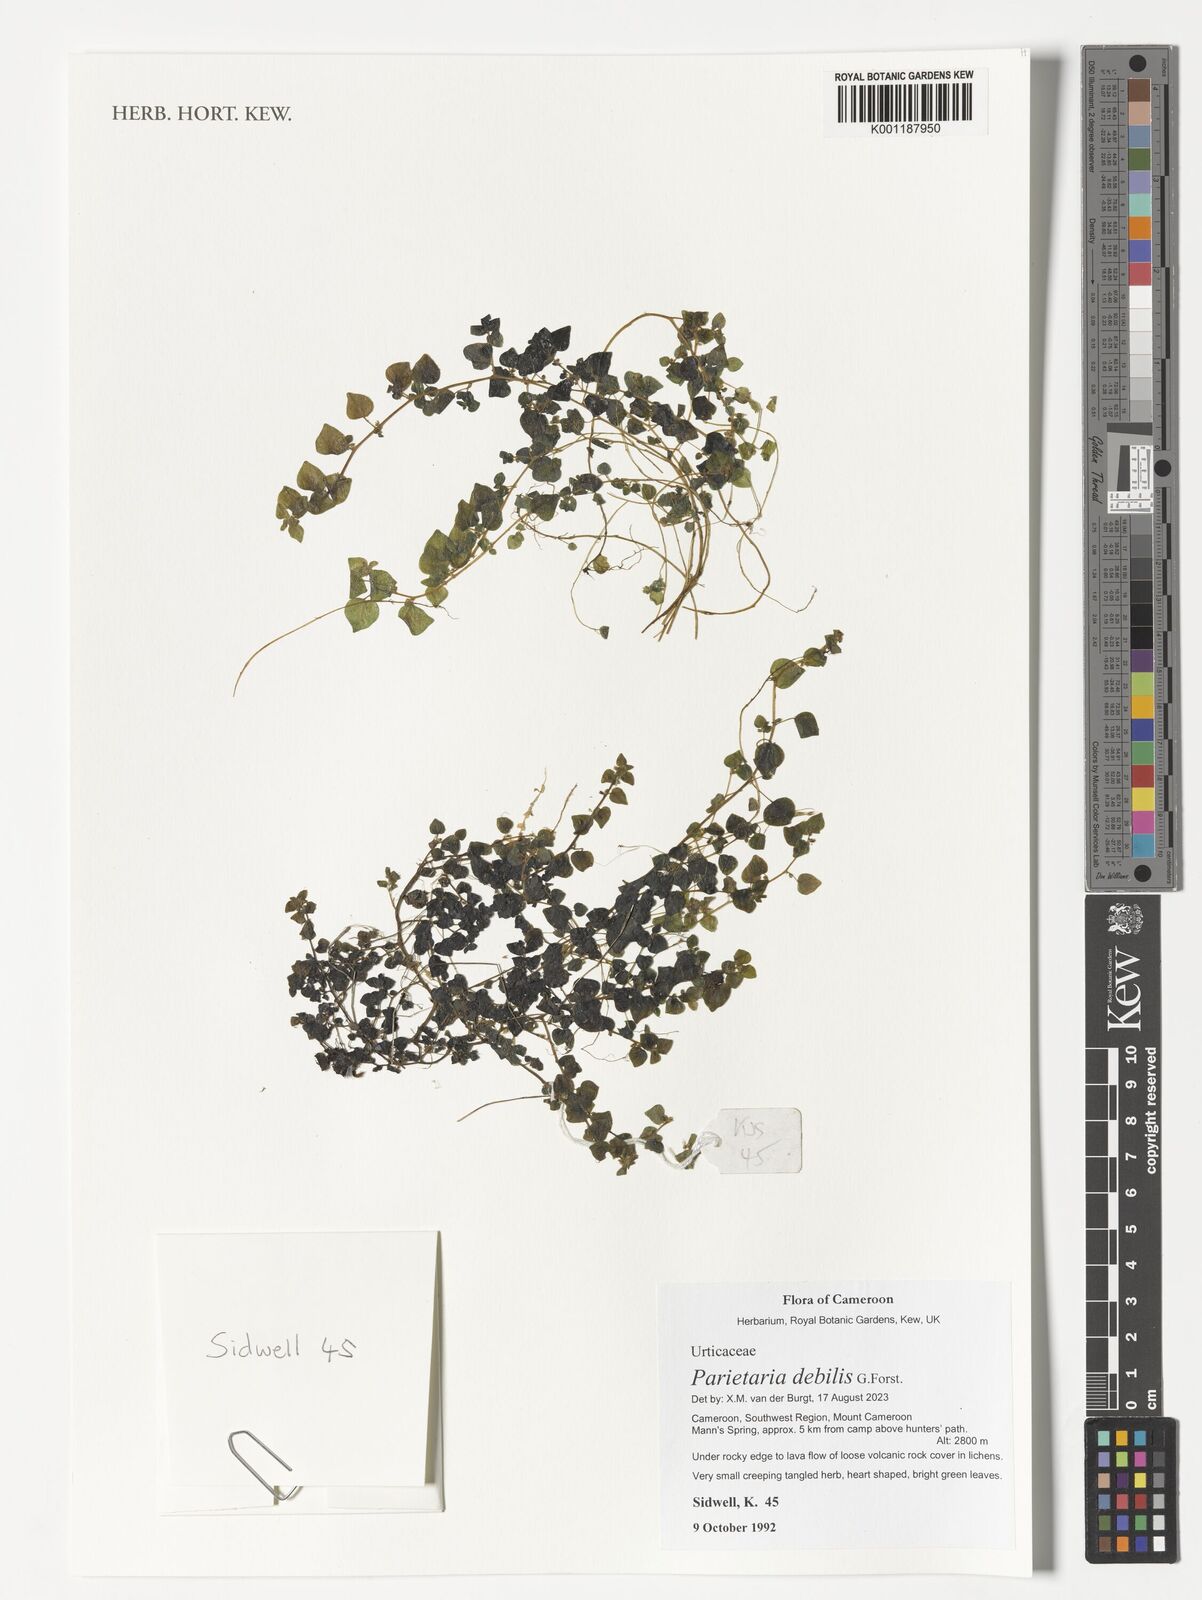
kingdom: Plantae
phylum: Tracheophyta
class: Magnoliopsida
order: Rosales
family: Urticaceae
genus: Parietaria
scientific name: Parietaria debilis
